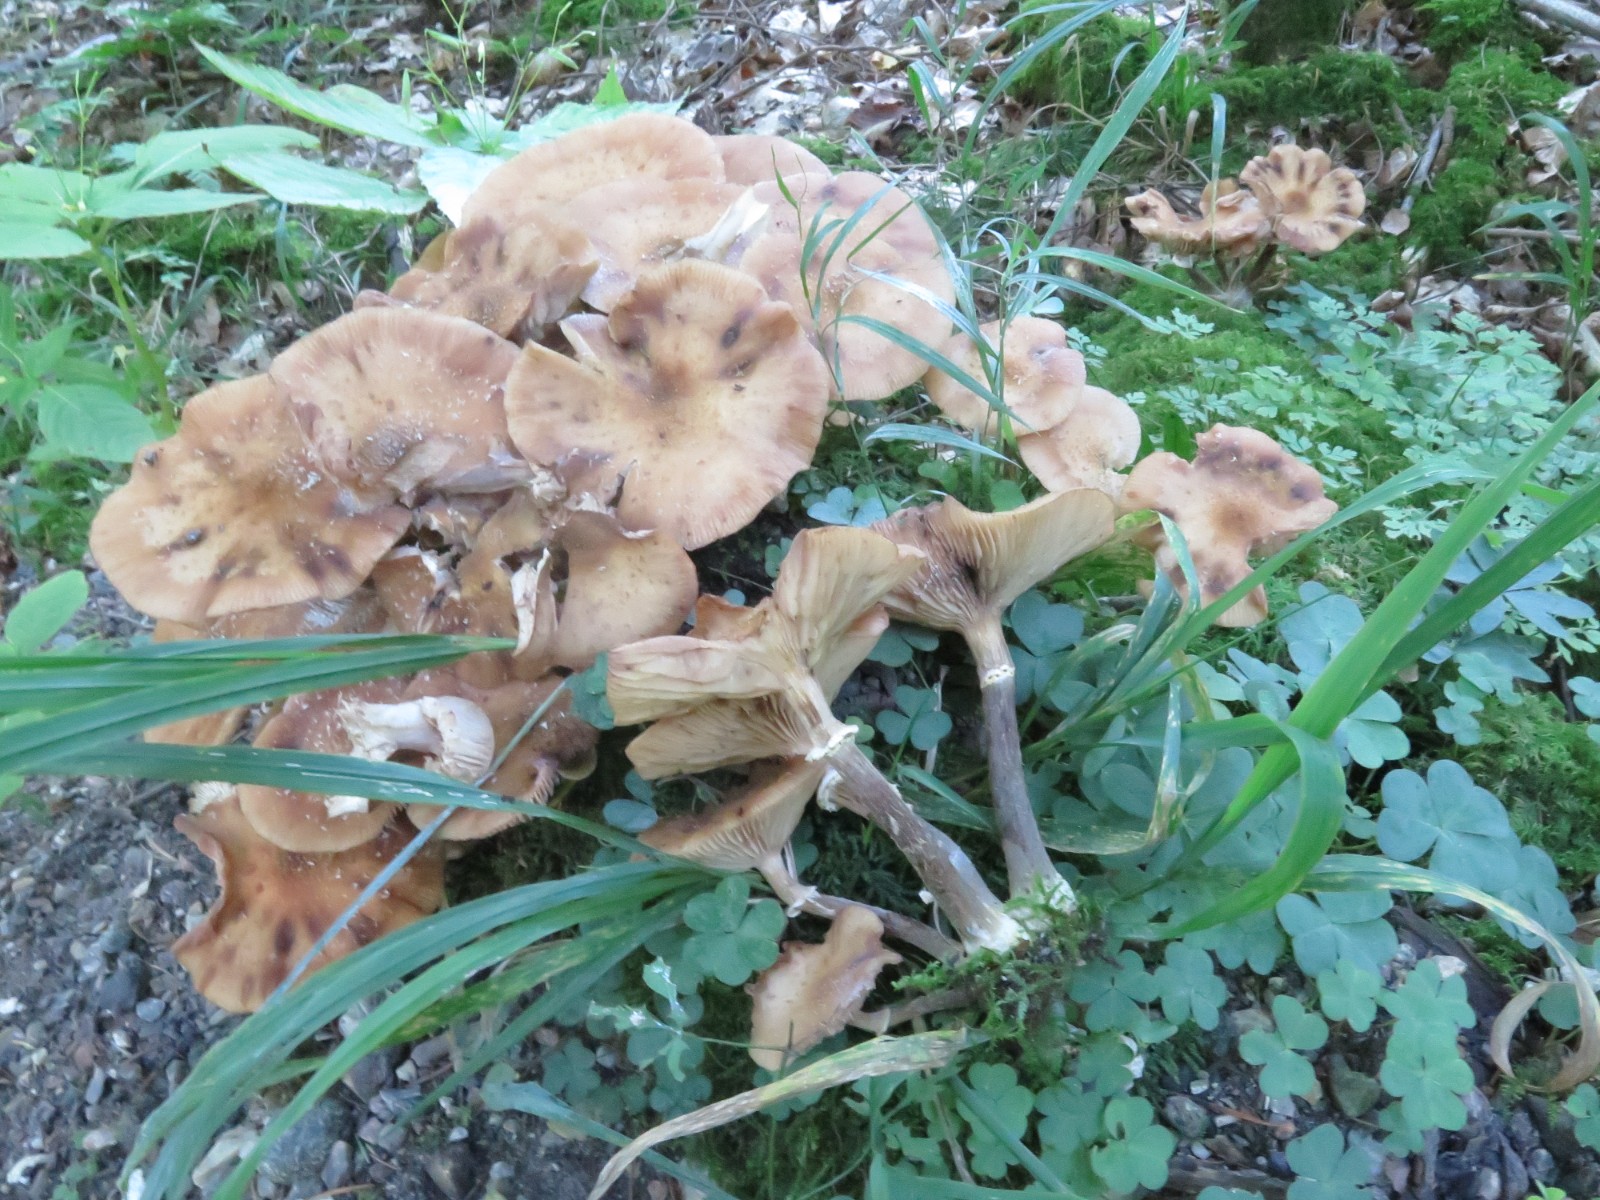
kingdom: Fungi
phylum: Basidiomycota
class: Agaricomycetes
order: Agaricales
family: Physalacriaceae
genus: Armillaria
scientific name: Armillaria lutea
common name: køllestokket honningsvamp
